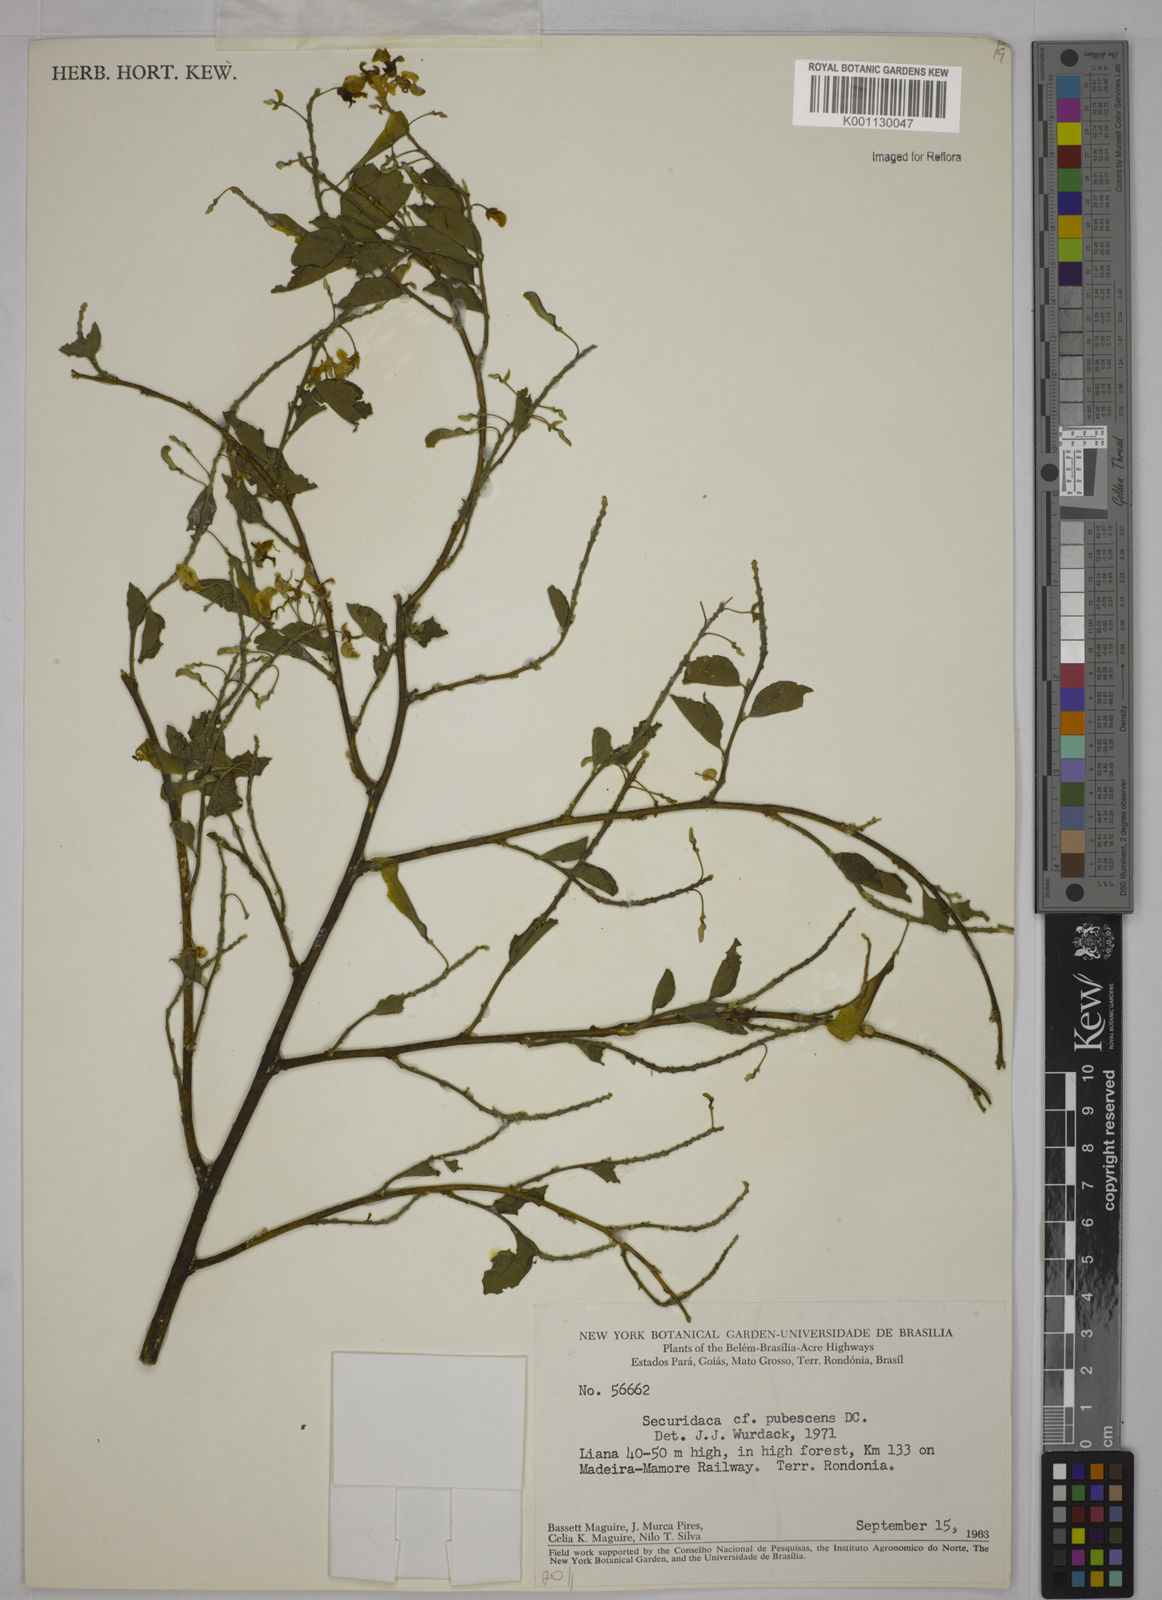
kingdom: Plantae
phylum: Tracheophyta
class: Magnoliopsida
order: Fabales
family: Polygalaceae
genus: Securidaca
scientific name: Securidaca pubescens
